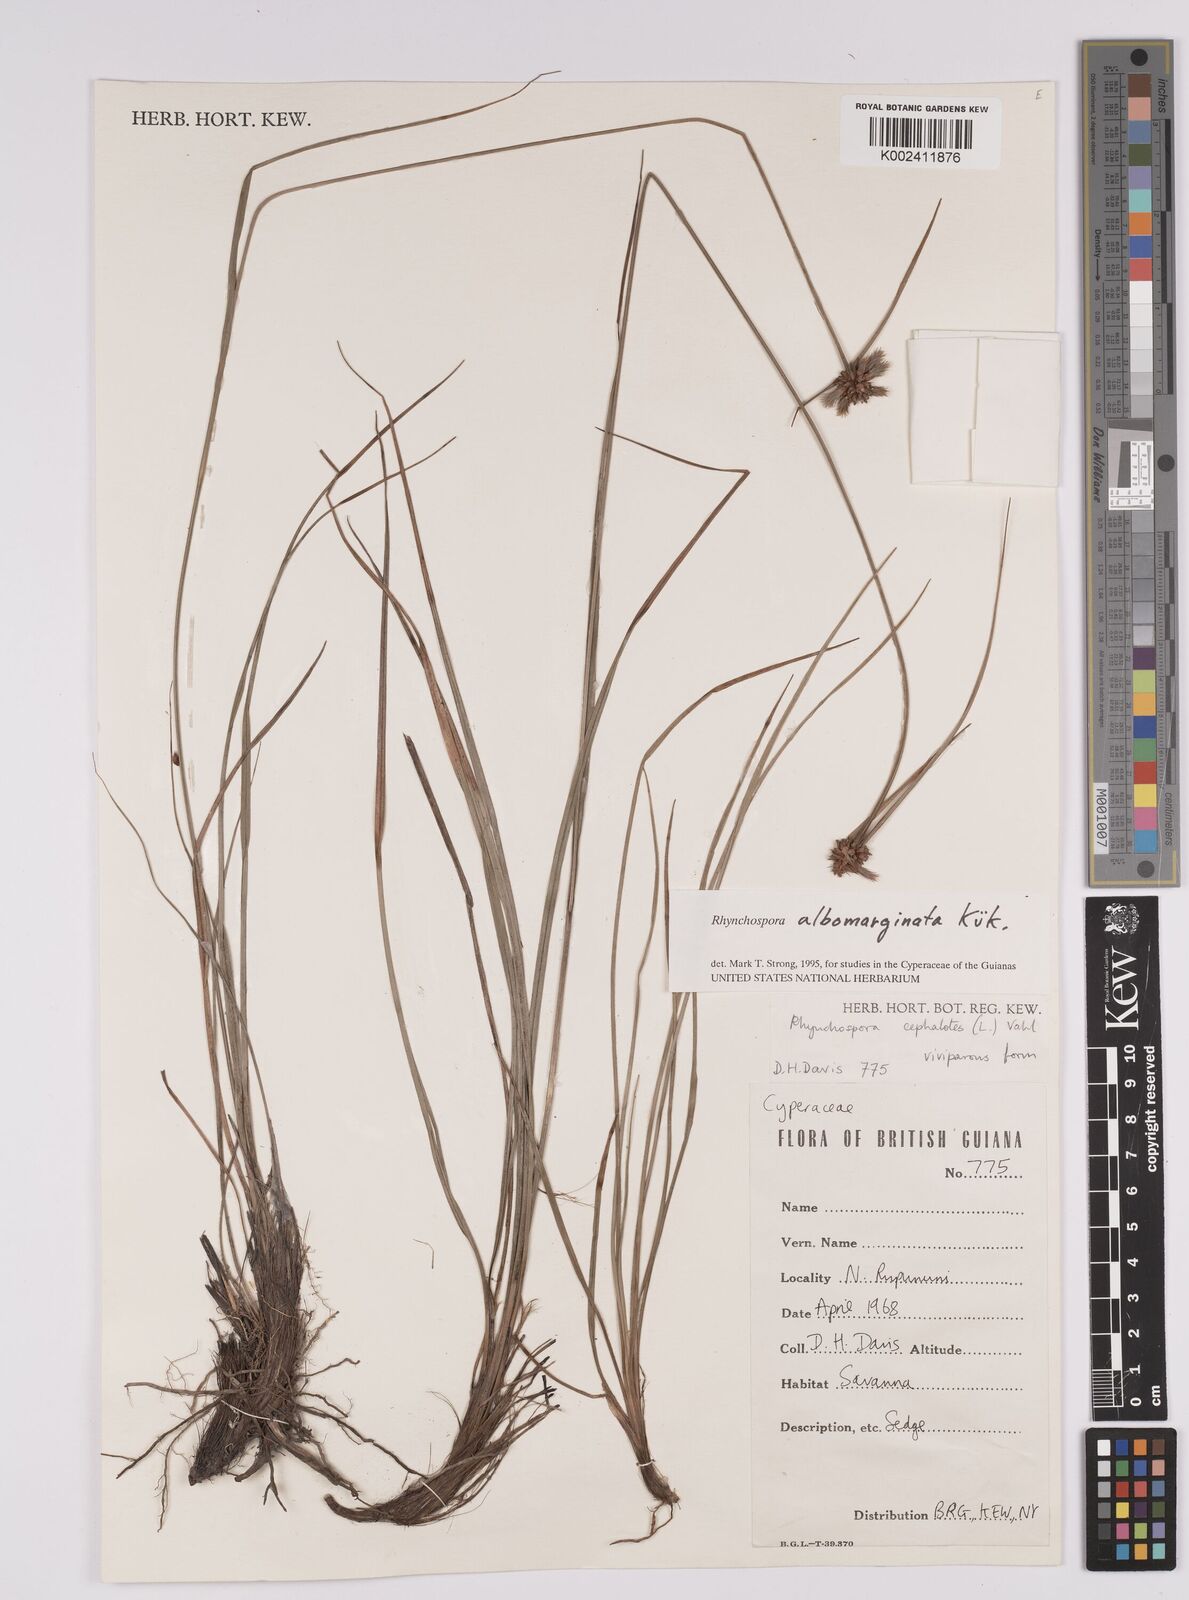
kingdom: Plantae
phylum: Tracheophyta
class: Liliopsida
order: Poales
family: Cyperaceae
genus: Rhynchospora
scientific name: Rhynchospora albomarginata
